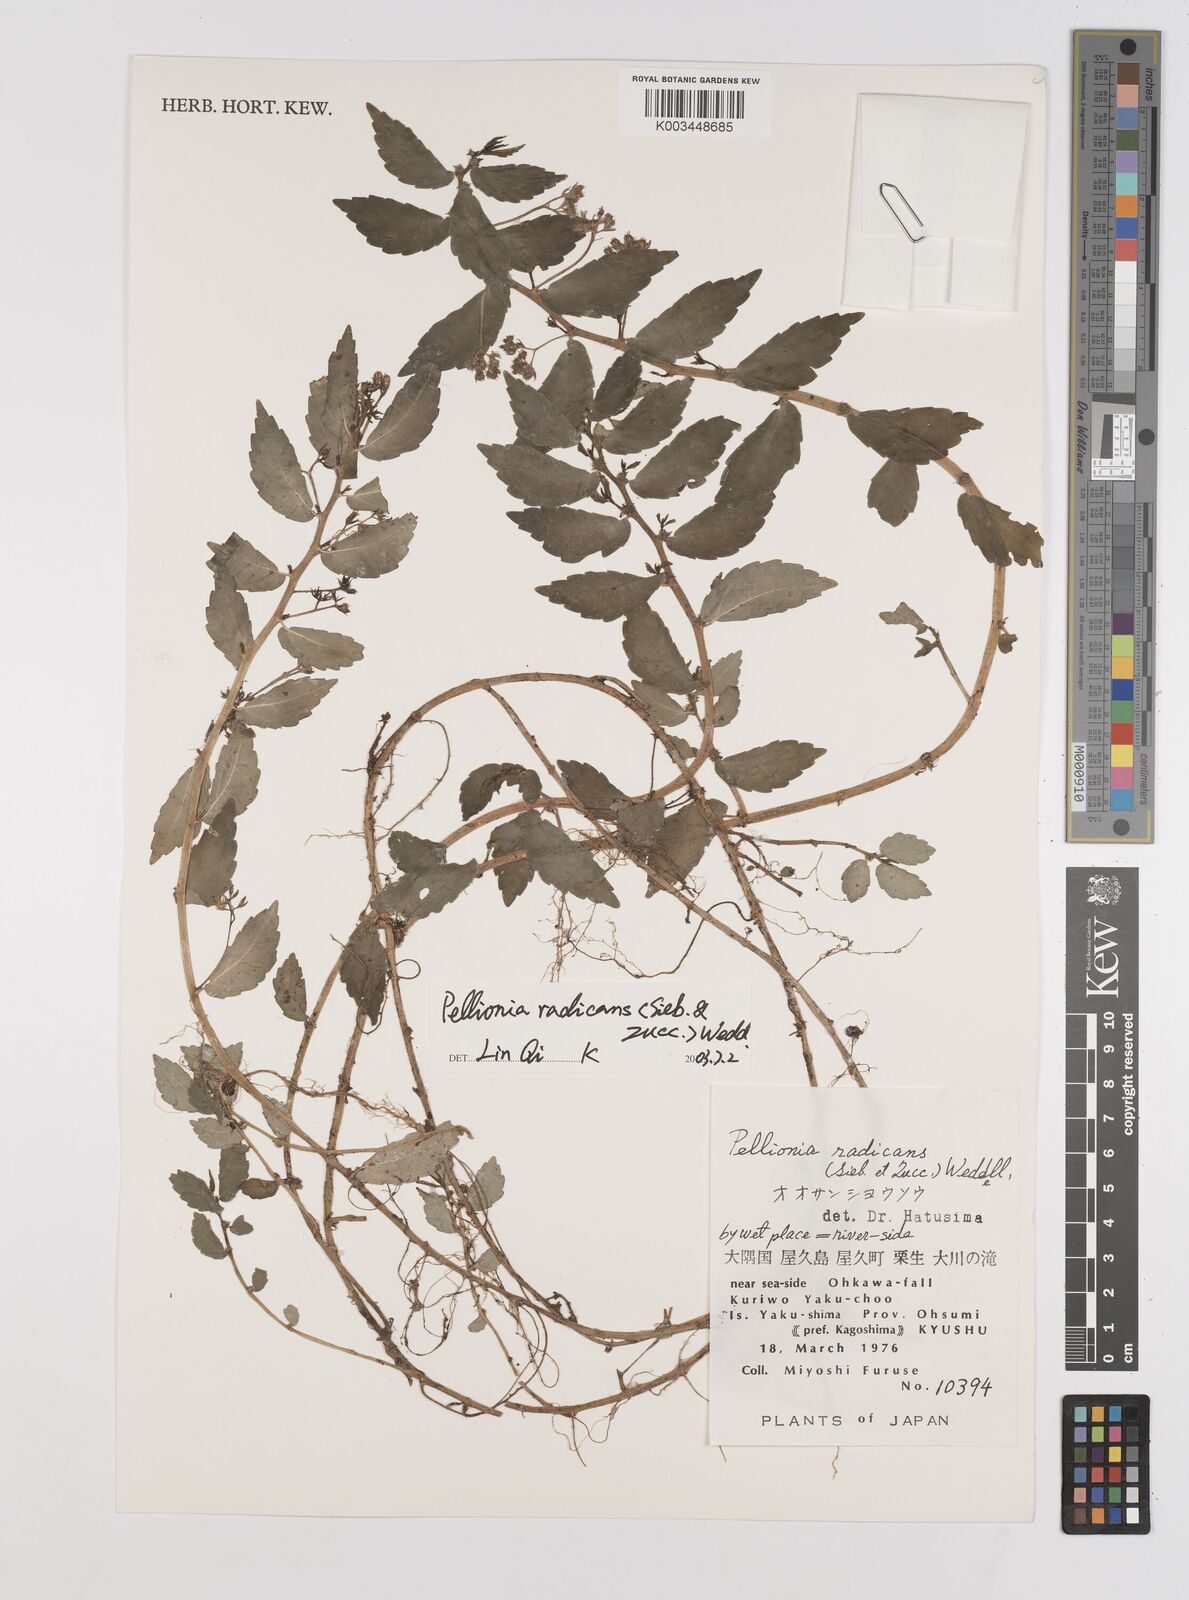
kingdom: Plantae
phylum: Tracheophyta
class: Magnoliopsida
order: Rosales
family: Urticaceae
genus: Elatostema
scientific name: Elatostema radicans
